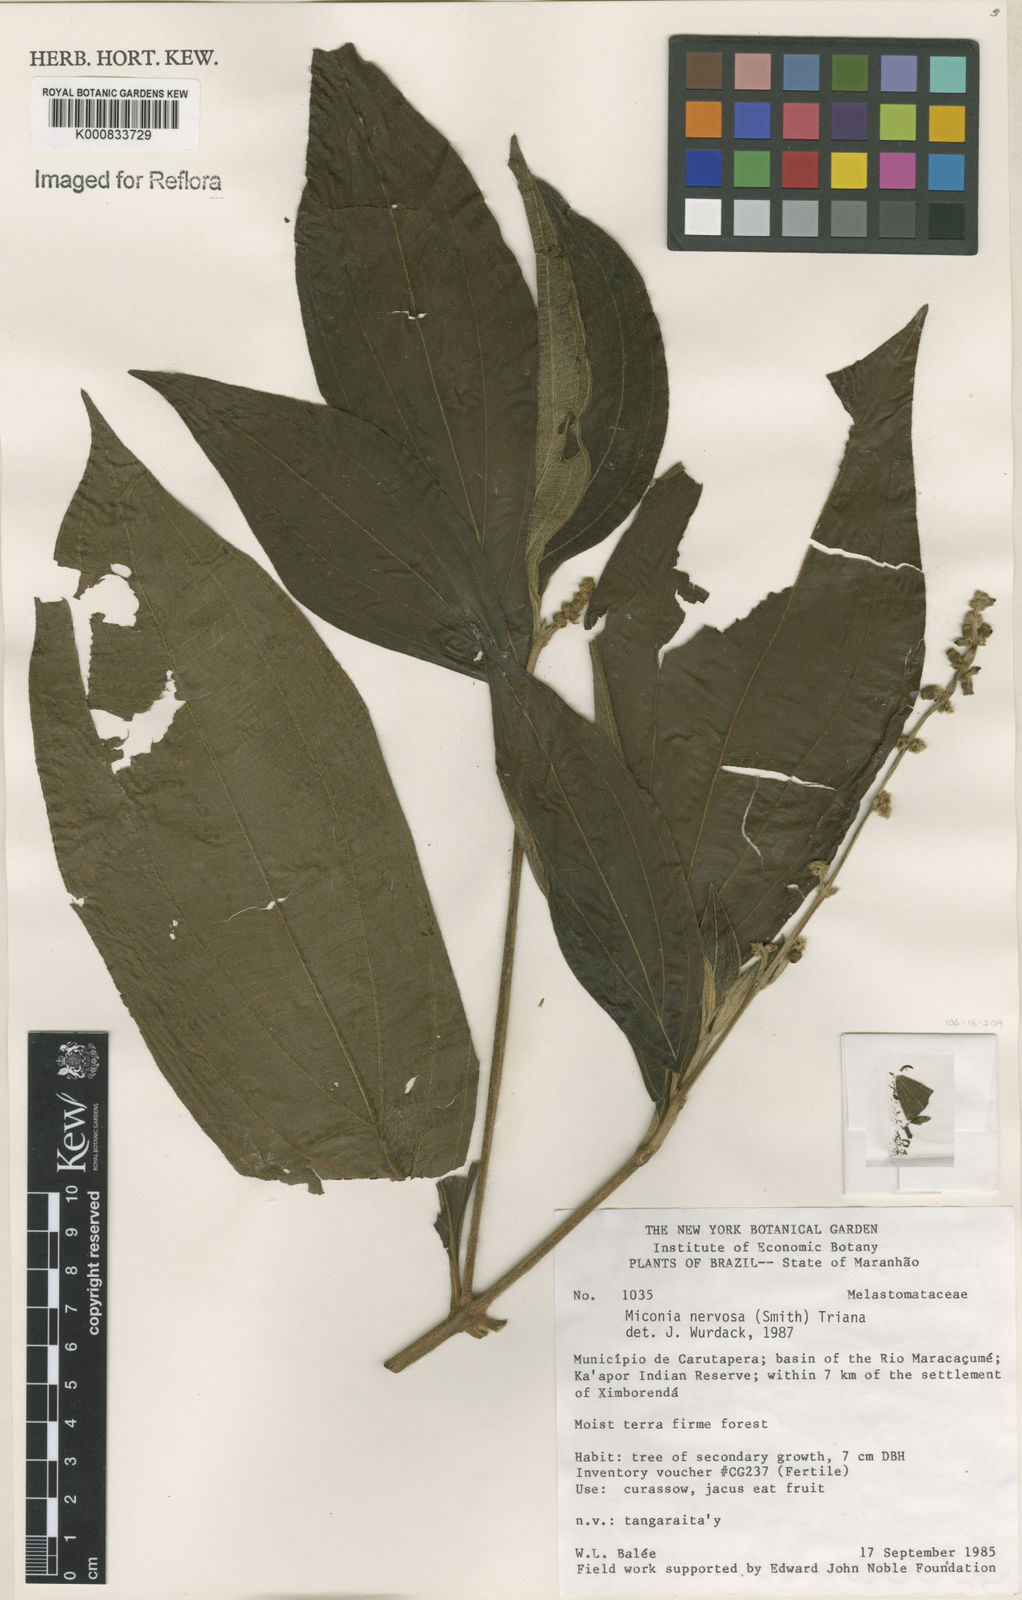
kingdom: Plantae
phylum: Tracheophyta
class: Magnoliopsida
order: Myrtales
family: Melastomataceae
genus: Miconia
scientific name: Miconia nervosa
